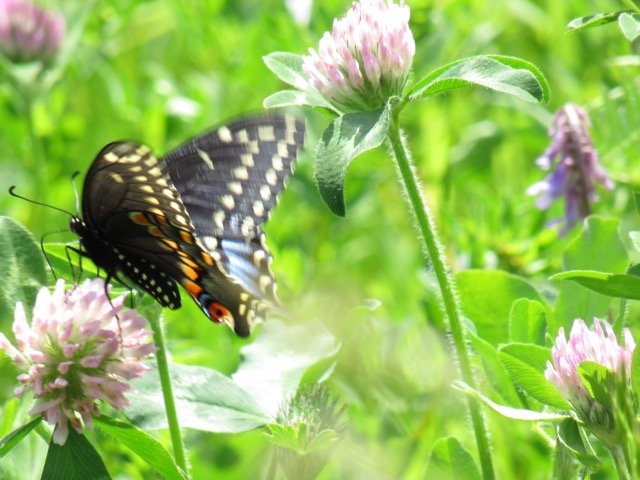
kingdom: Animalia
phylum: Arthropoda
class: Insecta
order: Lepidoptera
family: Papilionidae
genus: Papilio
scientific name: Papilio polyxenes
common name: Black Swallowtail
